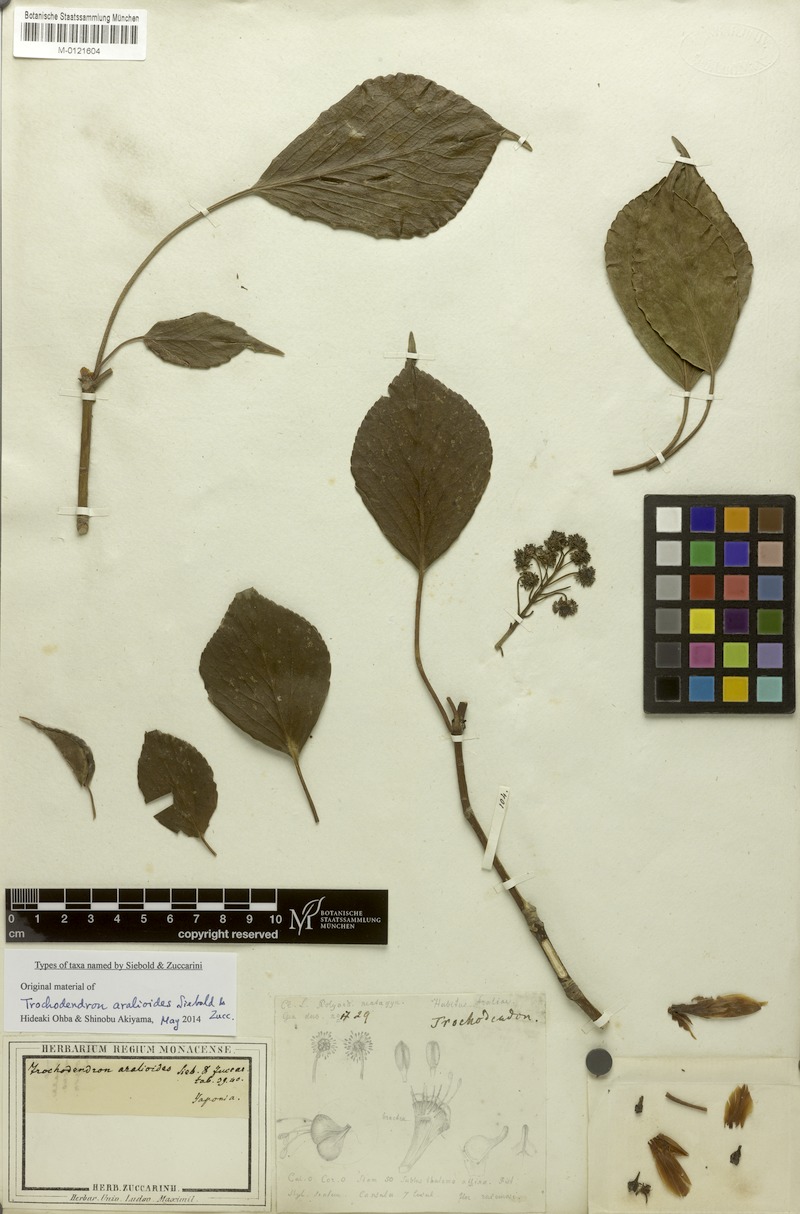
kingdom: Plantae
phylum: Tracheophyta
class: Magnoliopsida
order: Trochodendrales
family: Trochodendraceae
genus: Trochodendron
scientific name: Trochodendron aralioides
